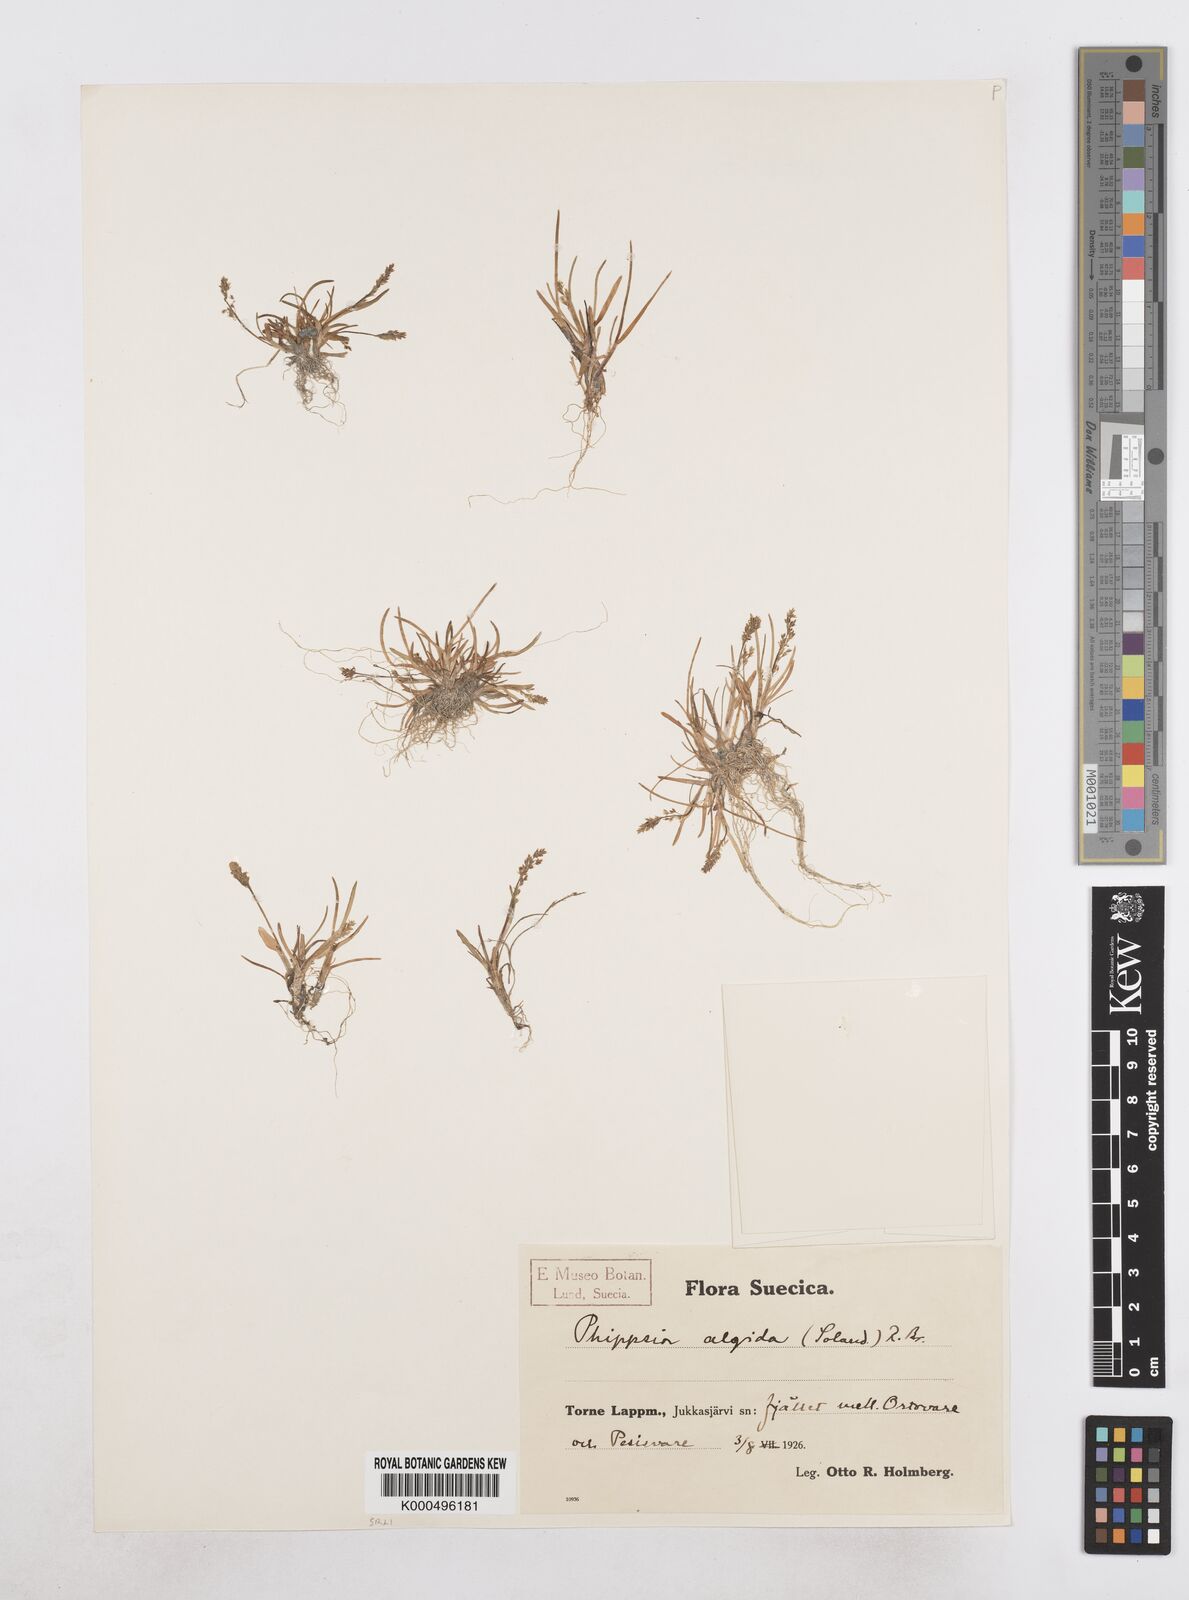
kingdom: Plantae
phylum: Tracheophyta
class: Liliopsida
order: Poales
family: Poaceae
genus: Phippsia
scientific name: Phippsia algida
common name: Ice grass
